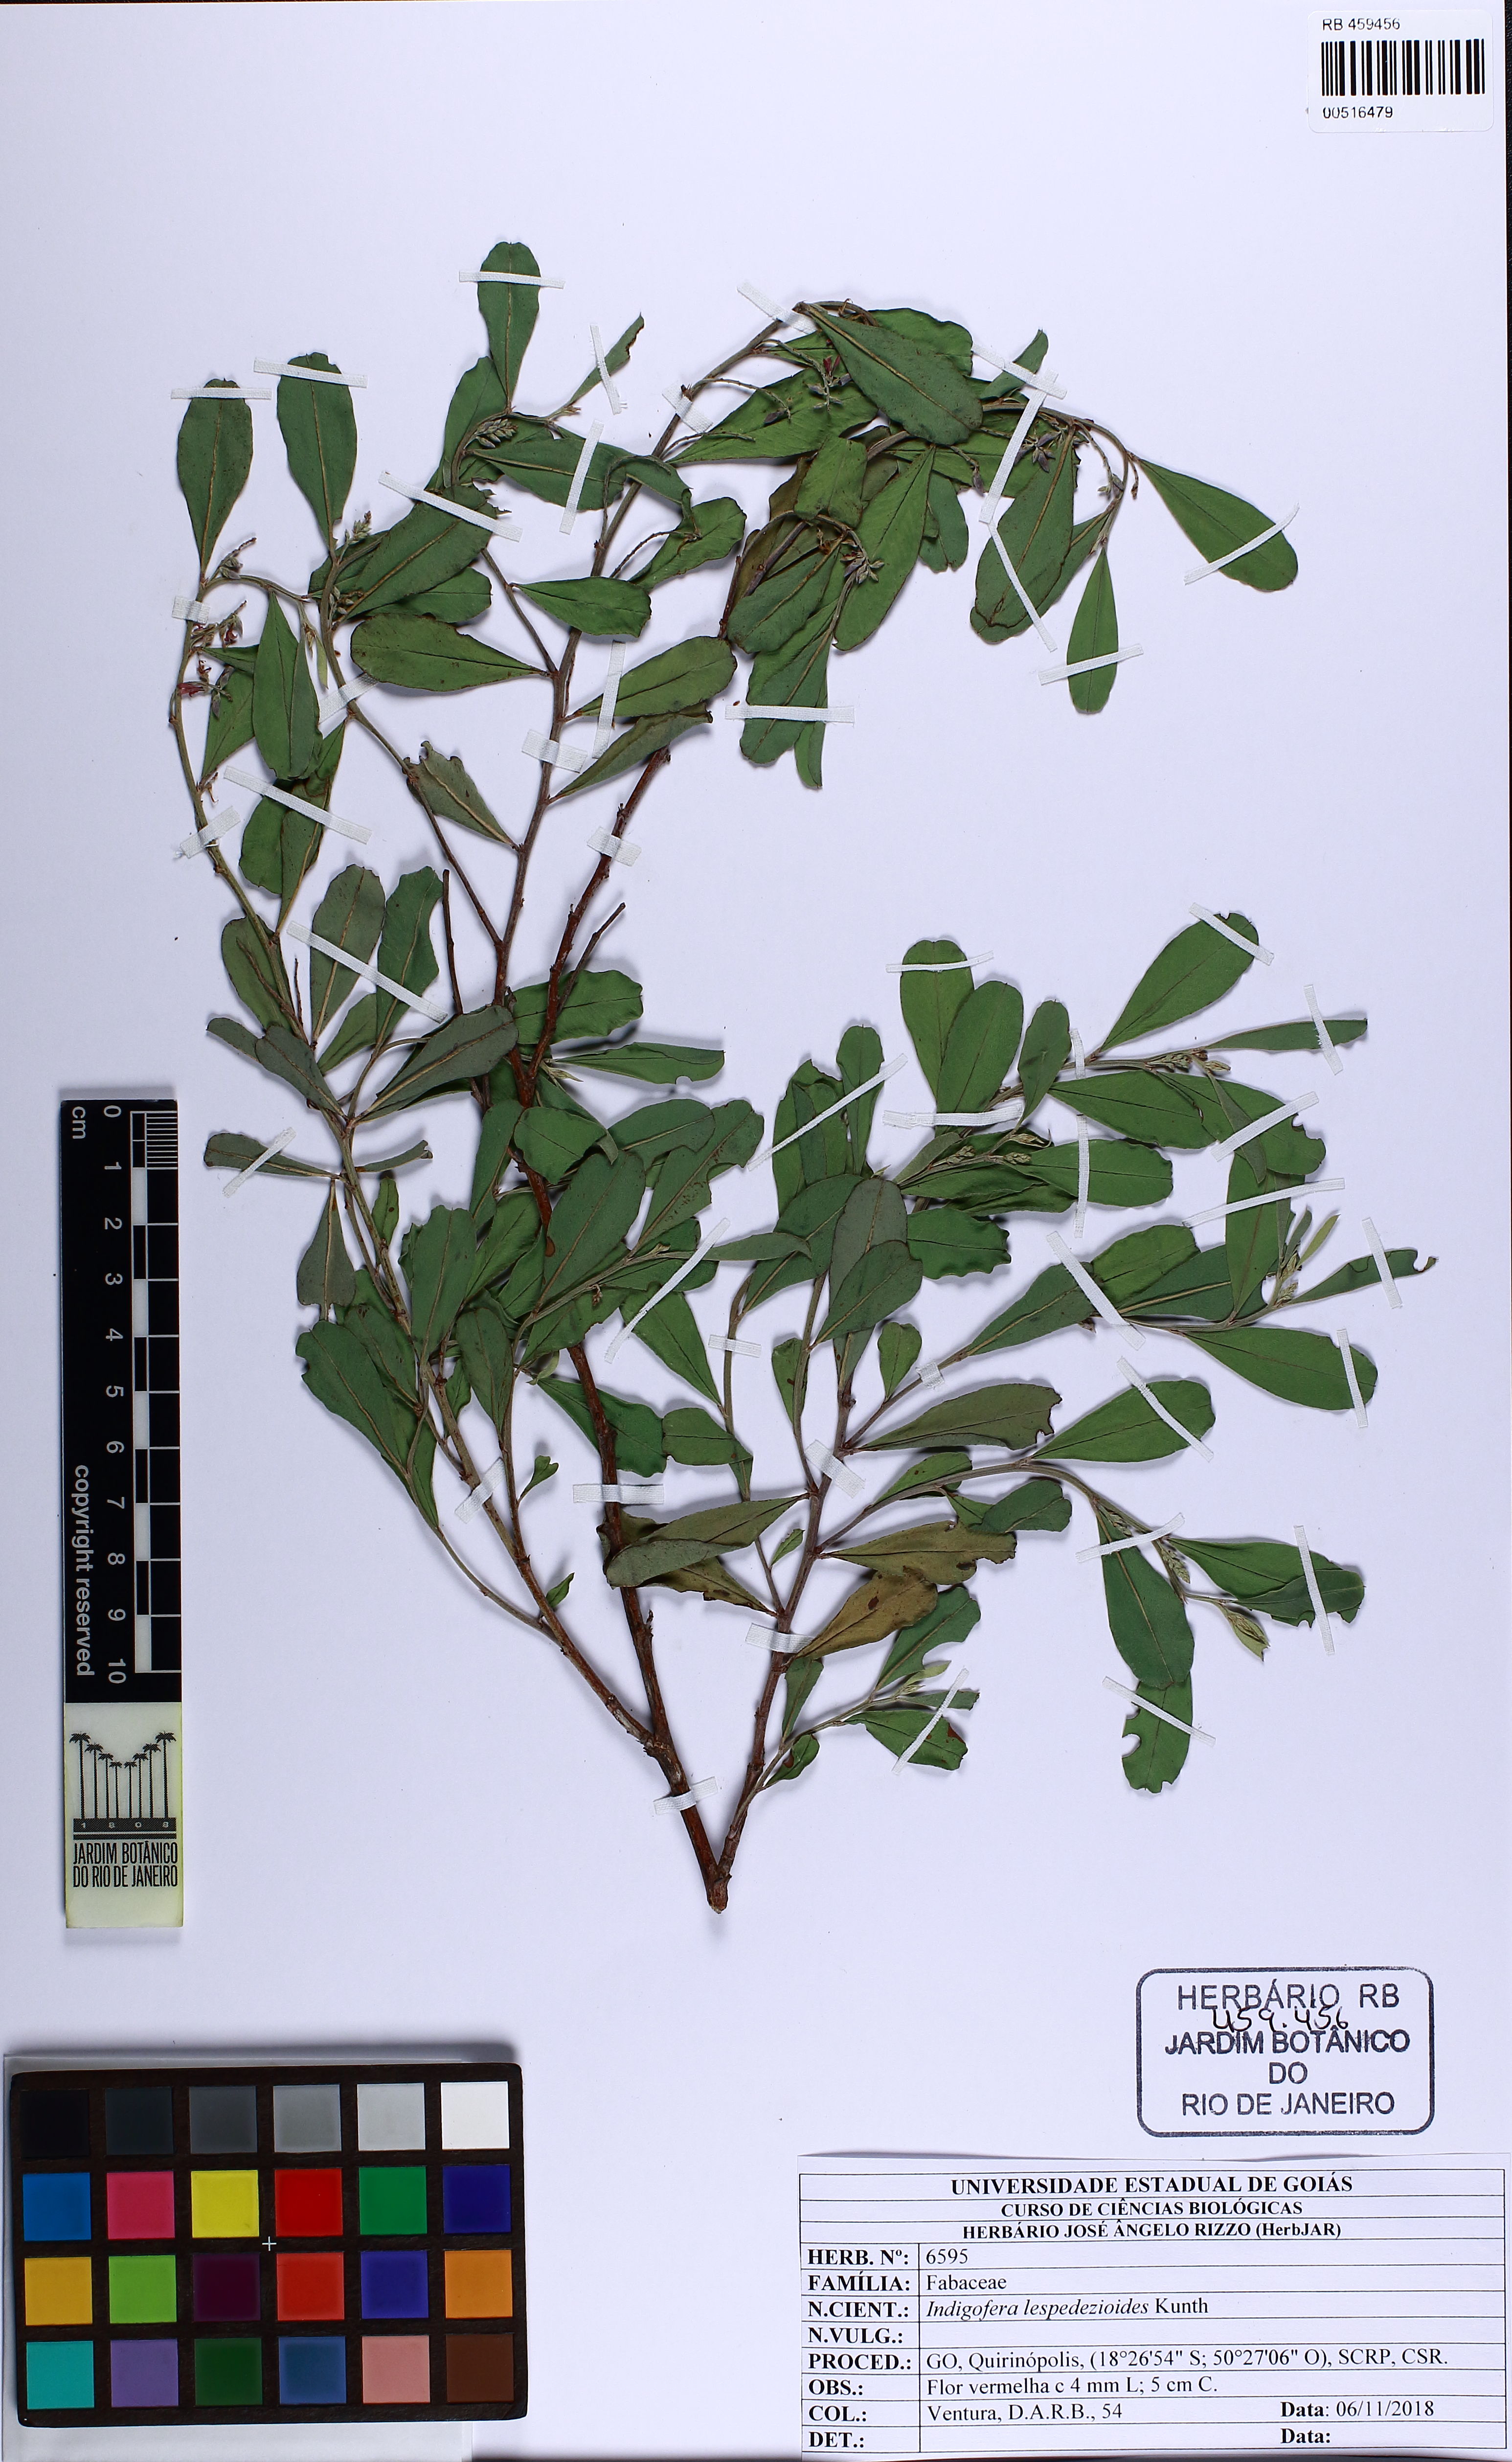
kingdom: Plantae
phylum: Tracheophyta
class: Magnoliopsida
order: Fabales
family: Fabaceae
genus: Indigofera
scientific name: Indigofera lespedezioides
